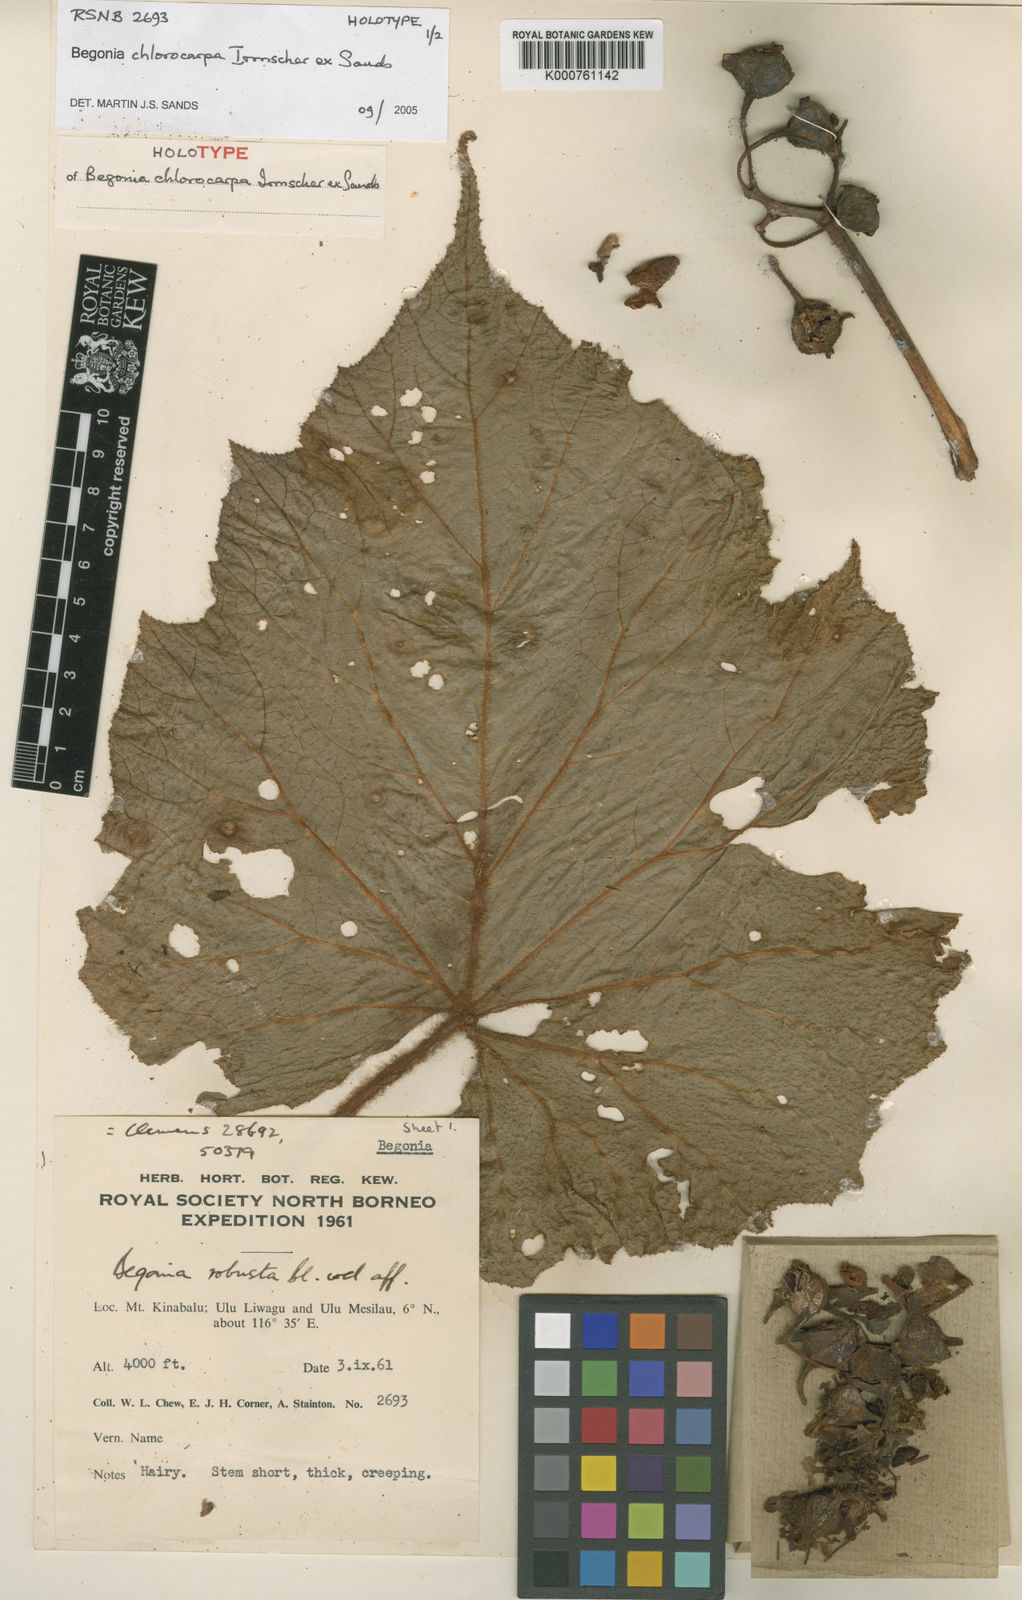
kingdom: Plantae
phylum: Tracheophyta
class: Magnoliopsida
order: Cucurbitales
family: Begoniaceae
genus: Begonia
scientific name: Begonia chlorocarpa
